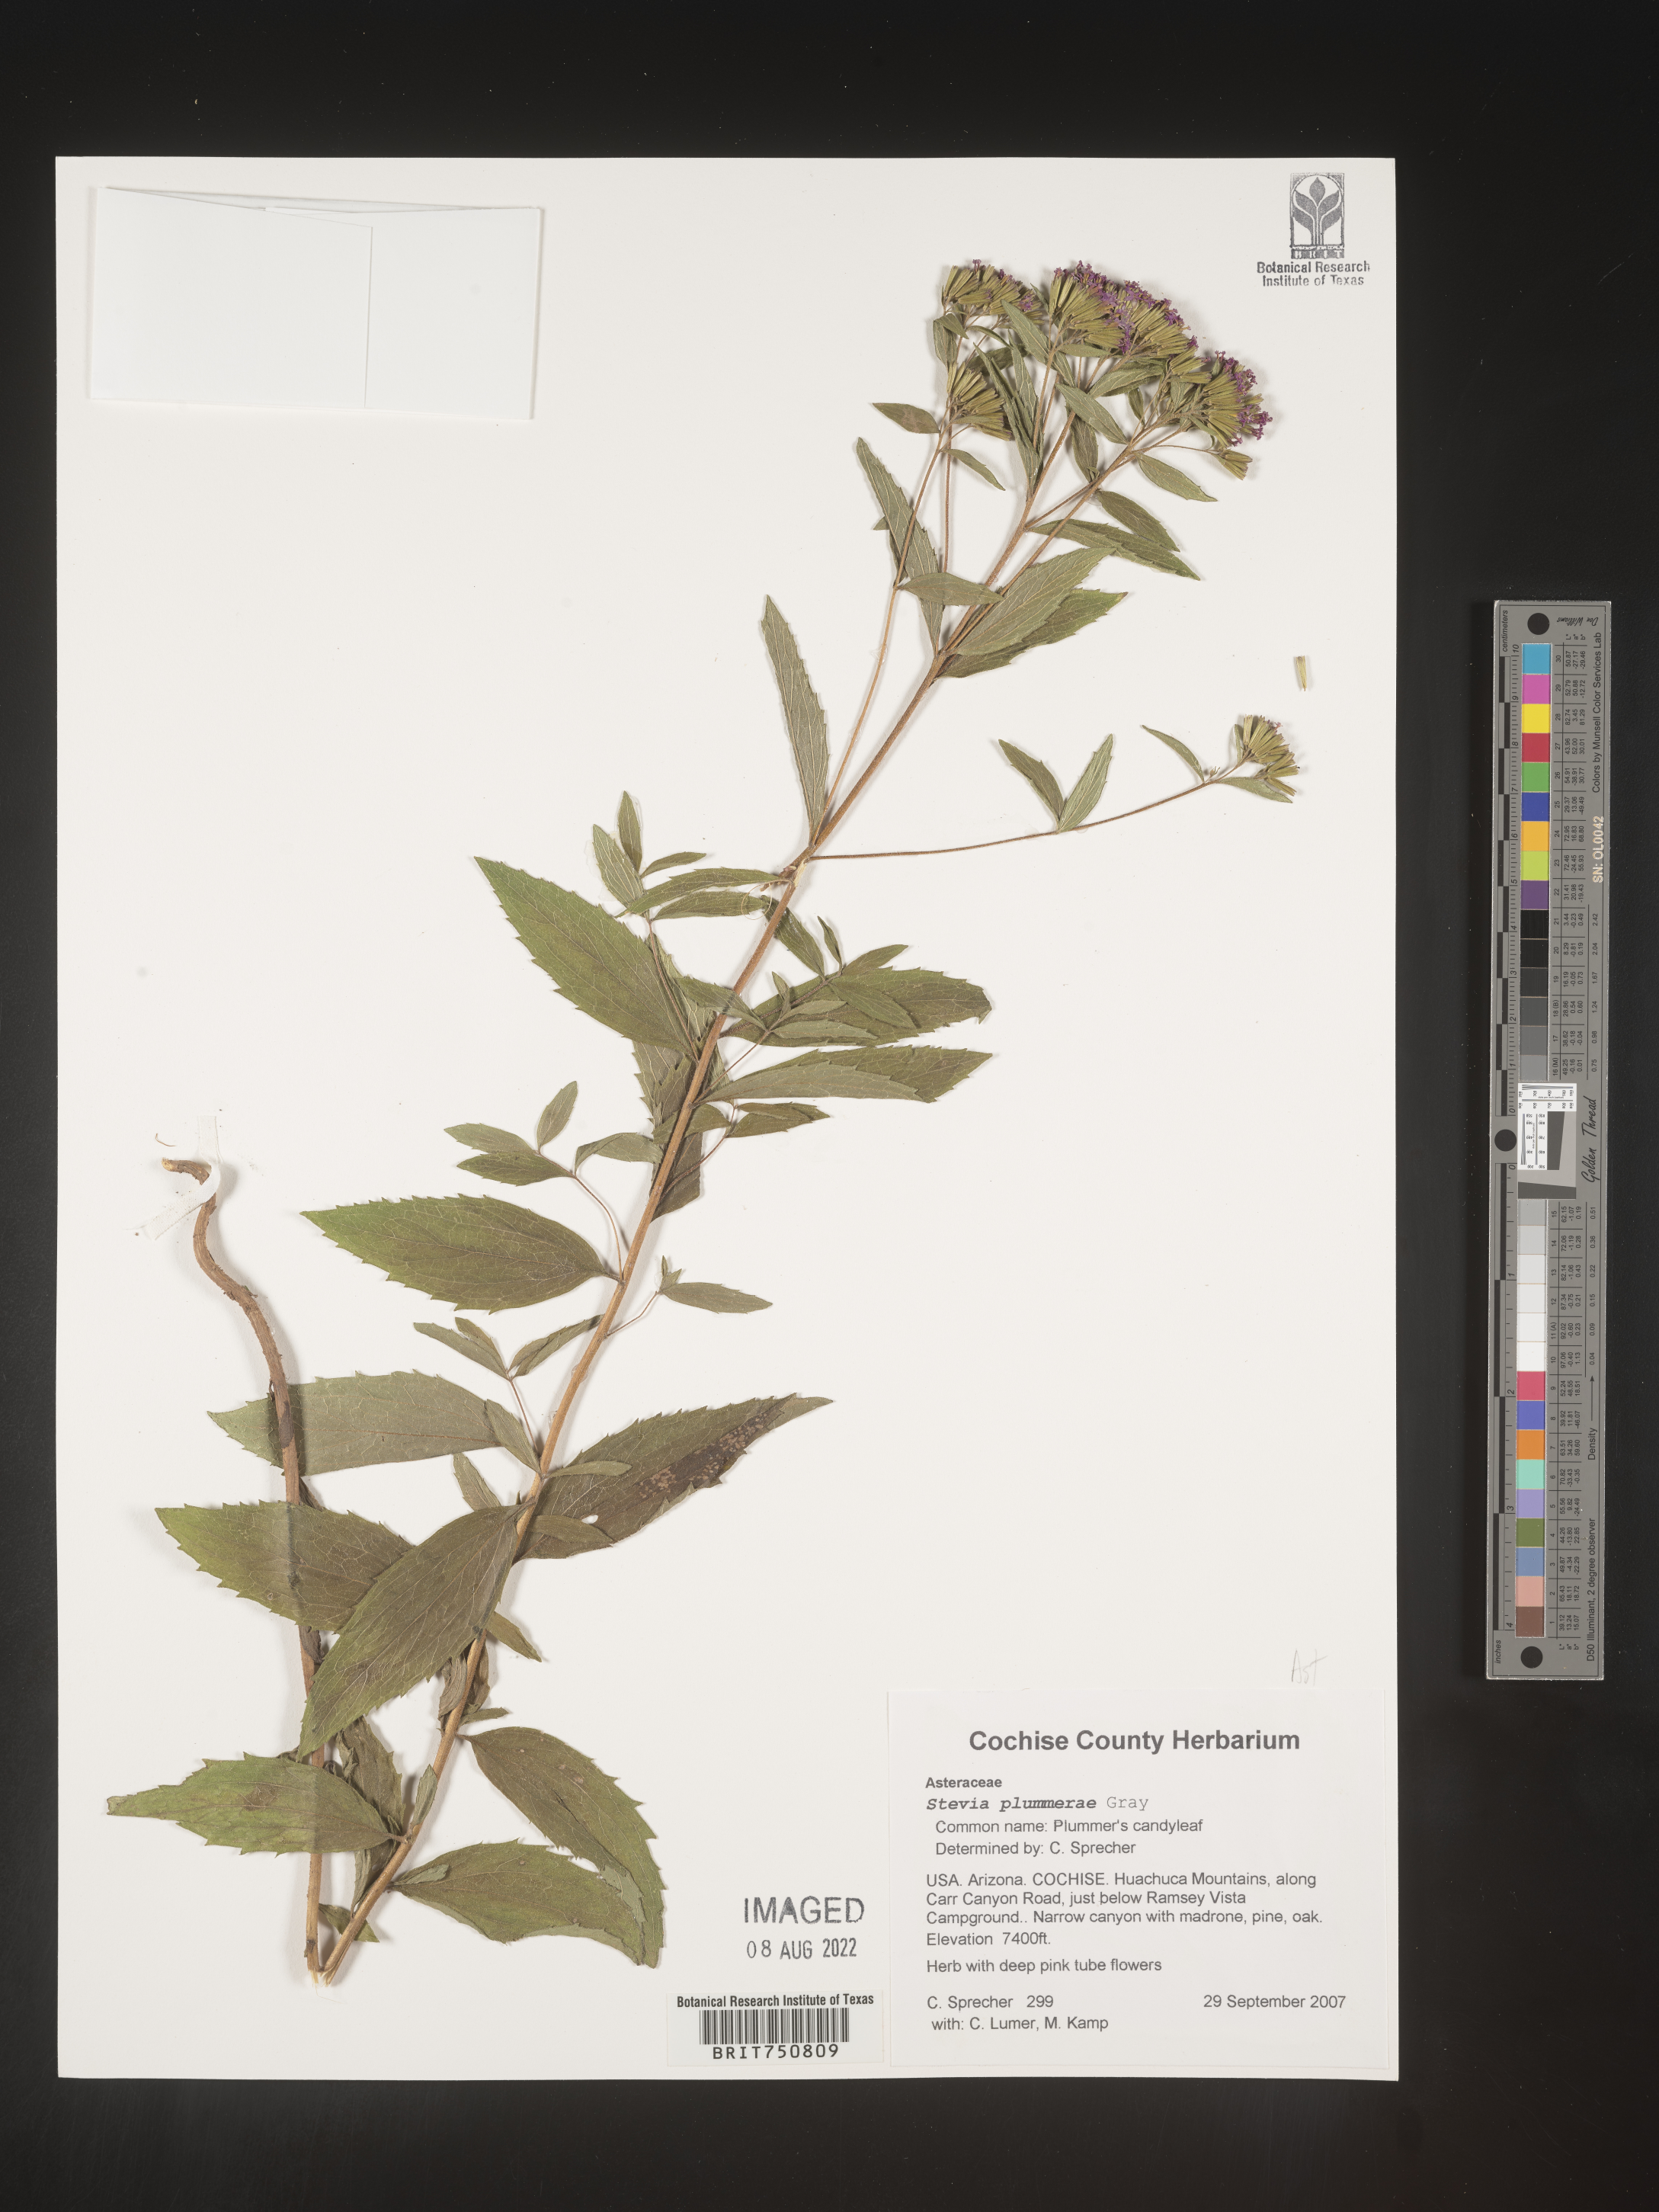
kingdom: Plantae
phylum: Tracheophyta
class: Magnoliopsida
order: Asterales
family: Asteraceae
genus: Stevia
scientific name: Stevia plummerae
